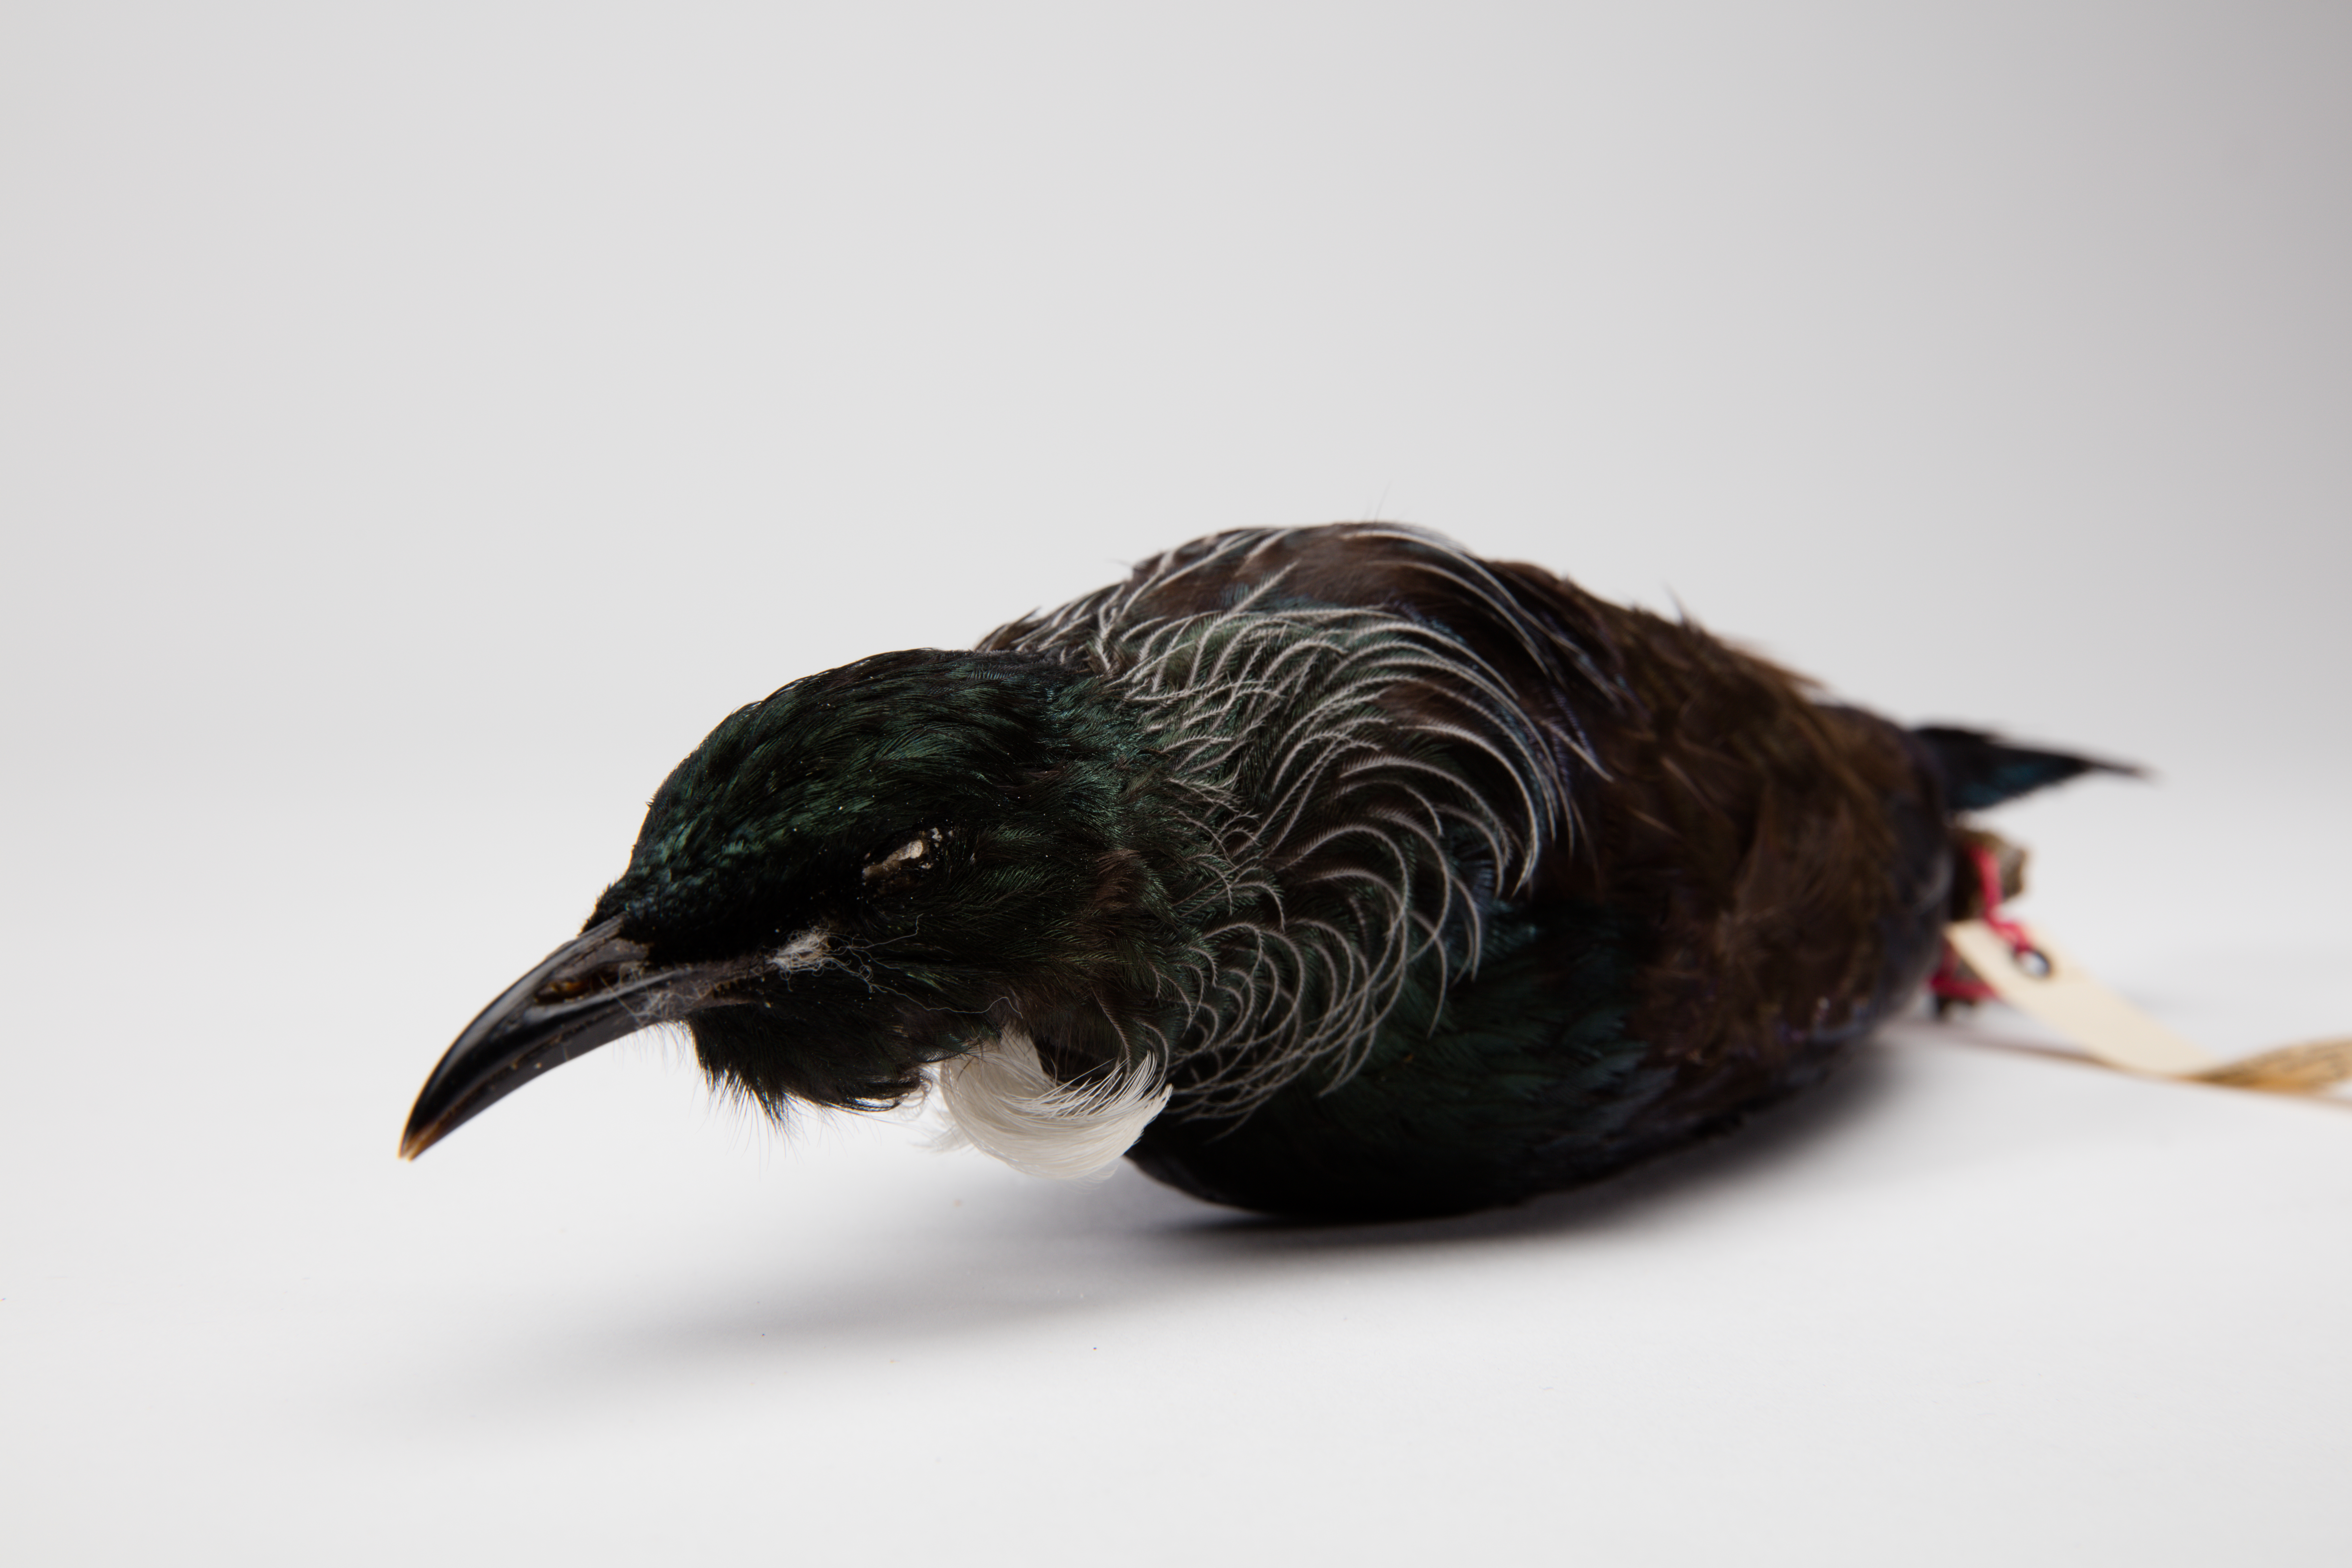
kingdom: Animalia
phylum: Chordata
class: Aves
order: Passeriformes
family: Meliphagidae
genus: Prosthemadera
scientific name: Prosthemadera novaeseelandiae
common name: Tui
